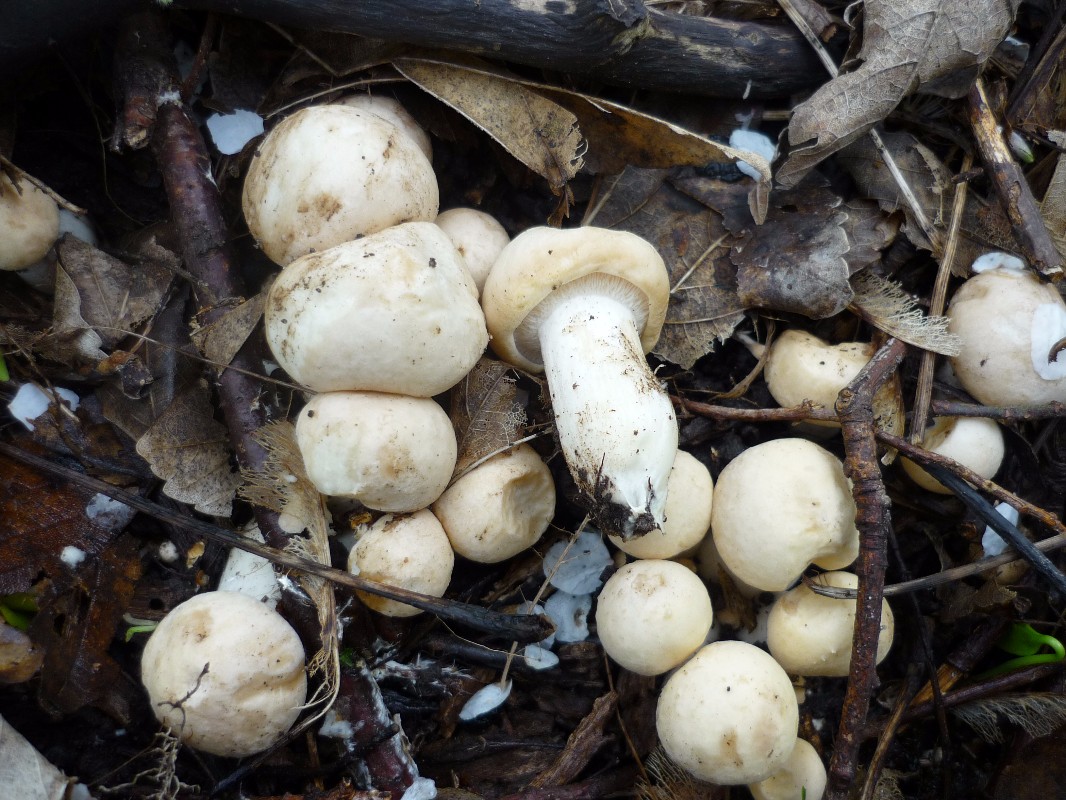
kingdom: Fungi
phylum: Basidiomycota
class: Agaricomycetes
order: Agaricales
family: Lyophyllaceae
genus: Calocybe
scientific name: Calocybe gambosa
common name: vårmusseron
